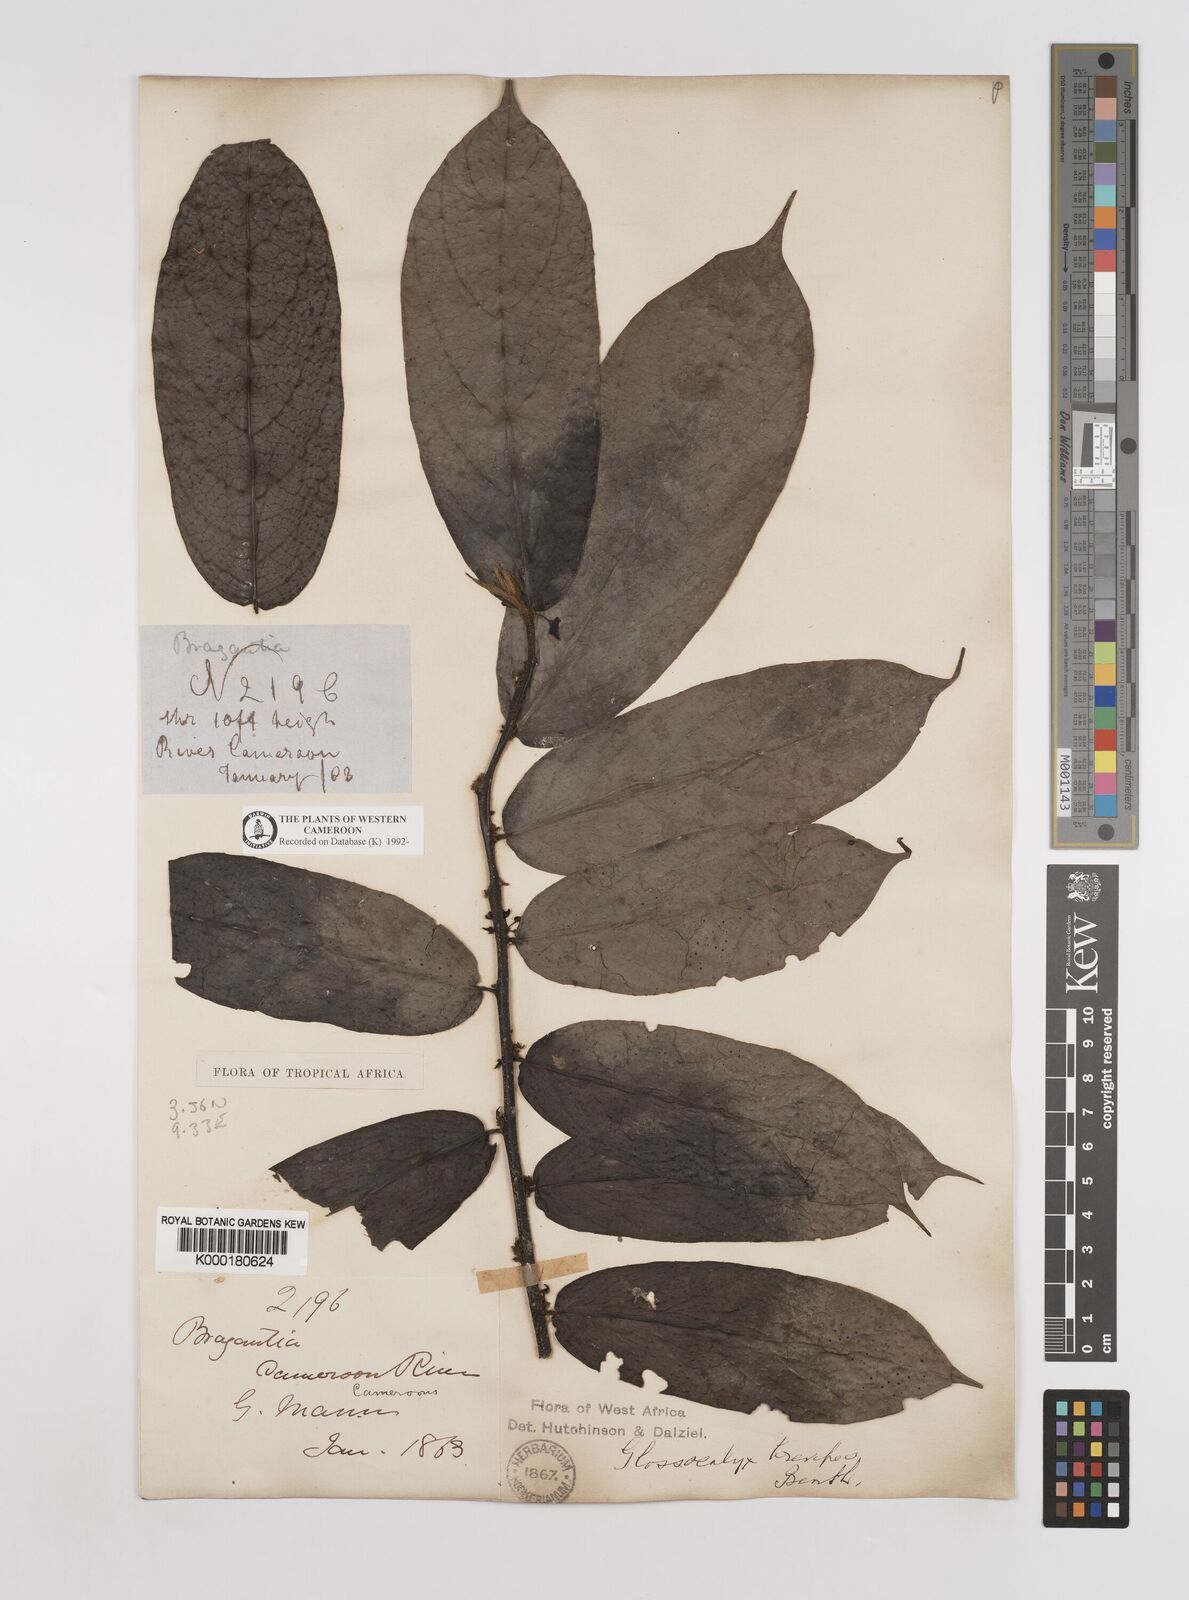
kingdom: Plantae
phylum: Tracheophyta
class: Magnoliopsida
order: Laurales
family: Siparunaceae
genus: Glossocalyx
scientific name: Glossocalyx brevipes
